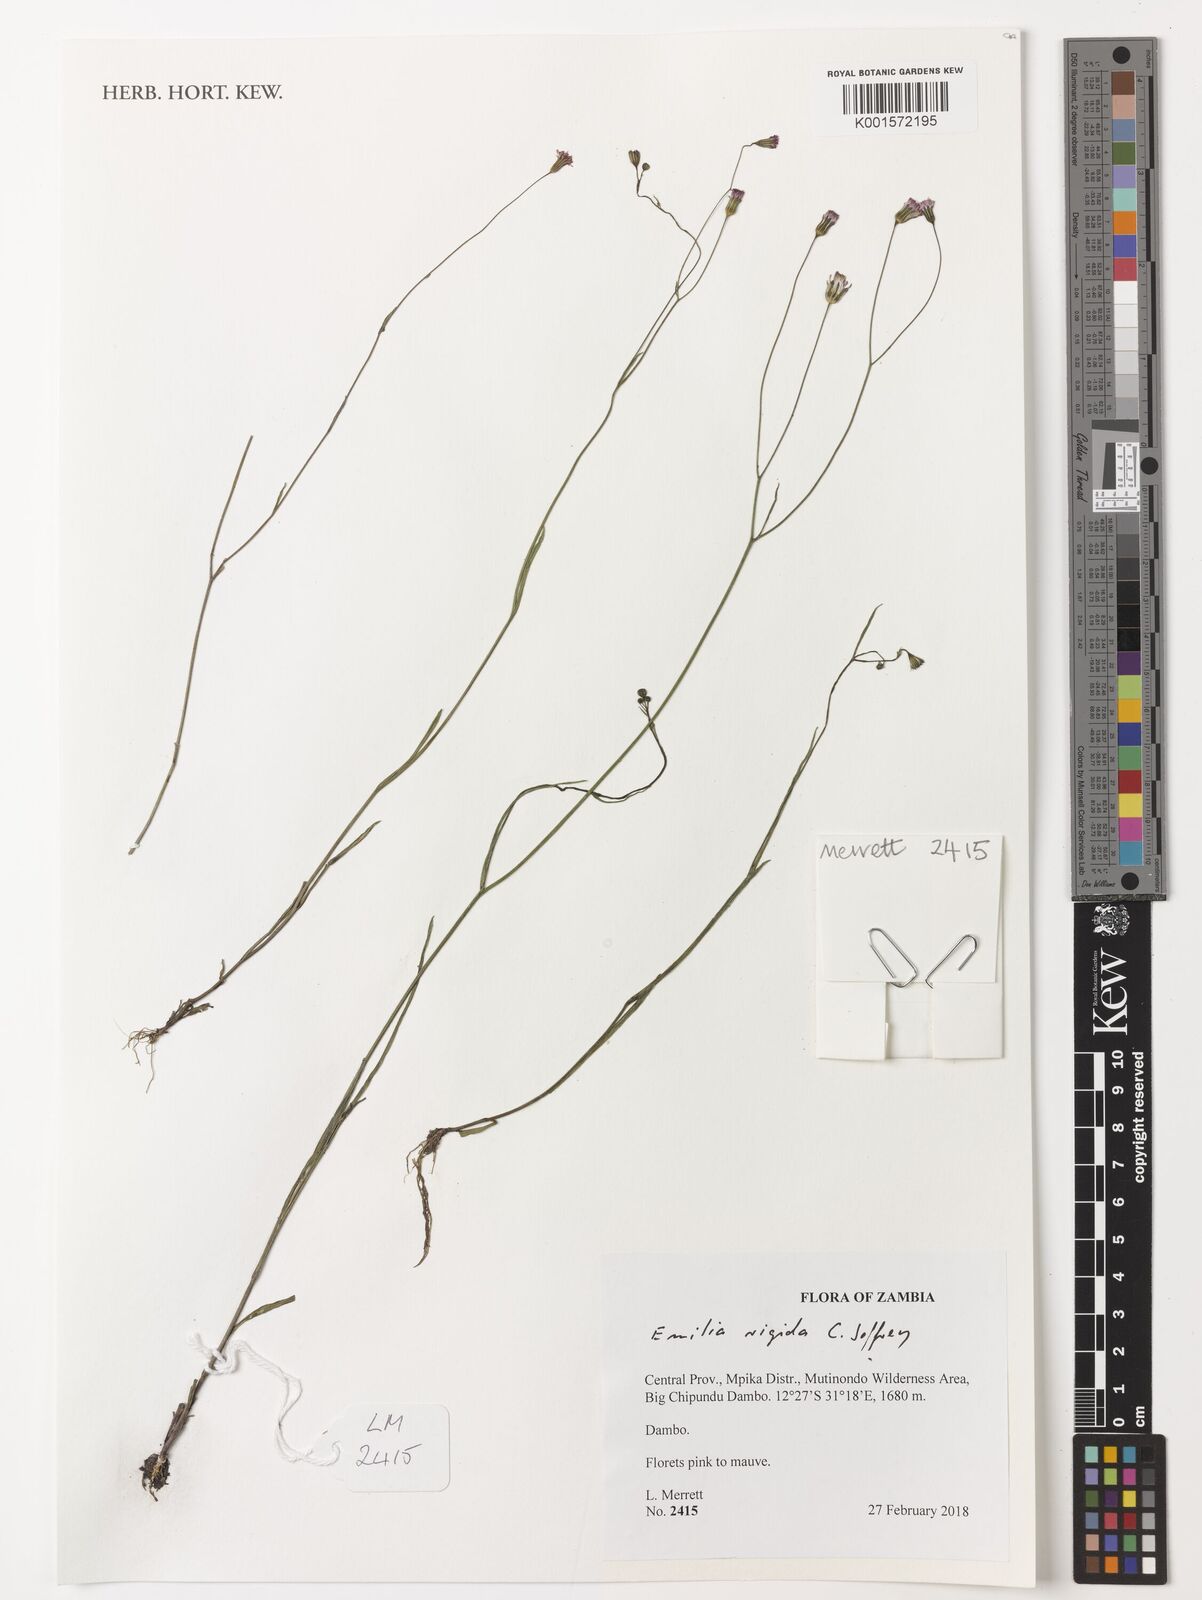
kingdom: Plantae
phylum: Tracheophyta
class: Magnoliopsida
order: Asterales
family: Asteraceae
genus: Emilia
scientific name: Emilia rigida
